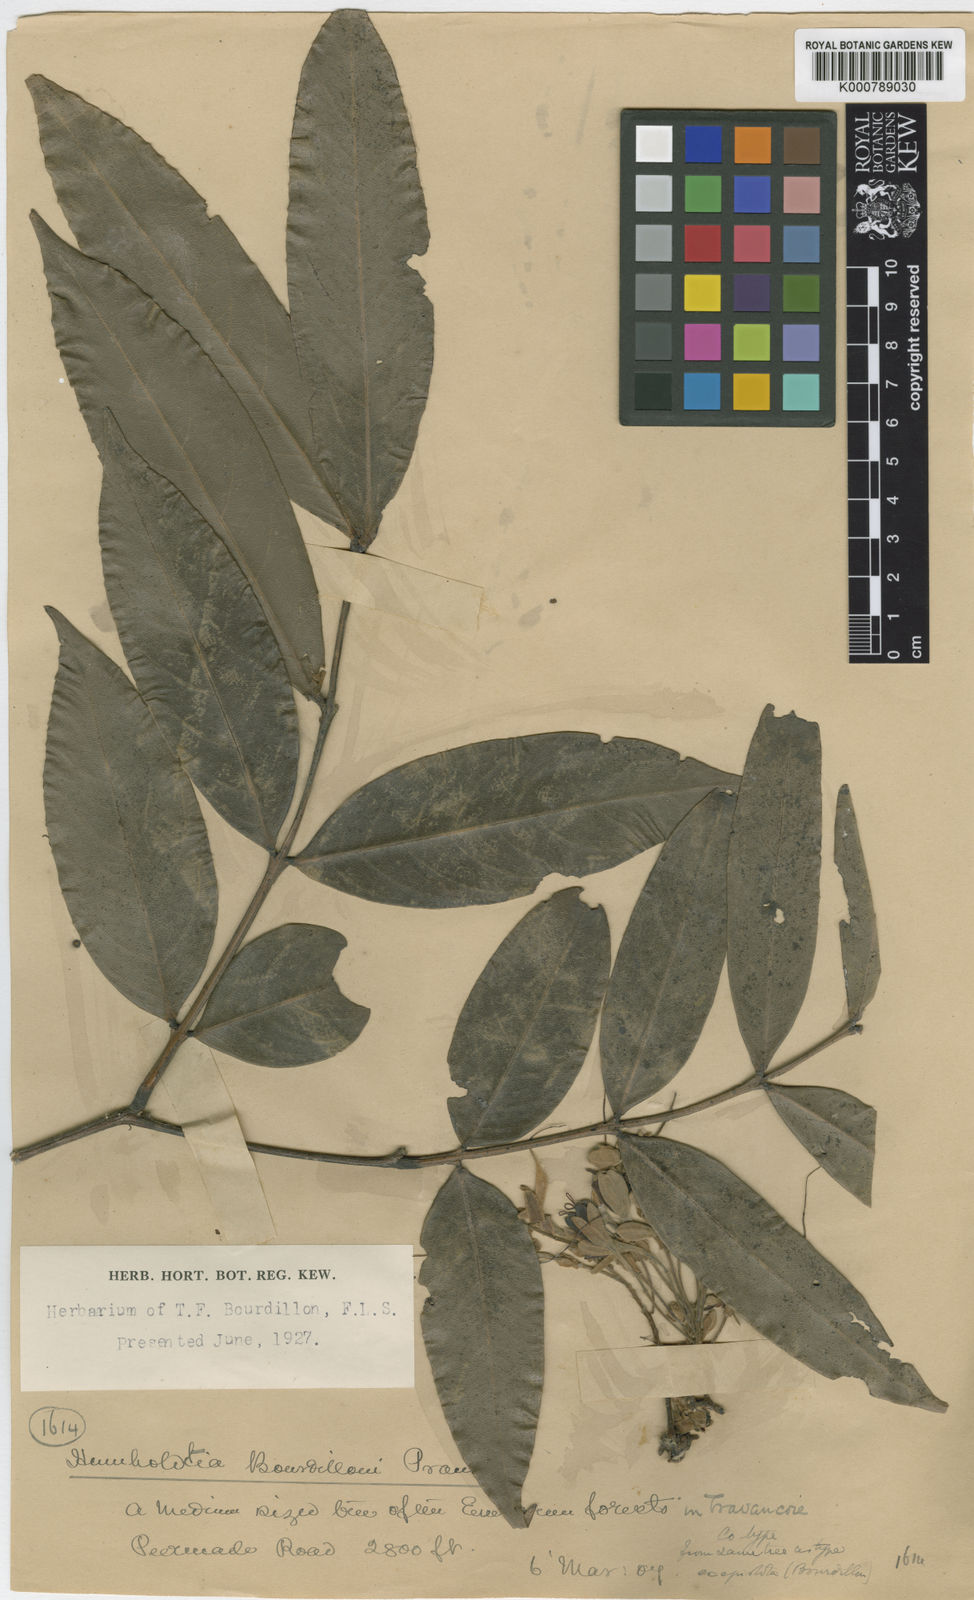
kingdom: Plantae
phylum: Tracheophyta
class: Magnoliopsida
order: Fabales
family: Fabaceae
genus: Humboldtia
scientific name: Humboldtia bourdillonii
